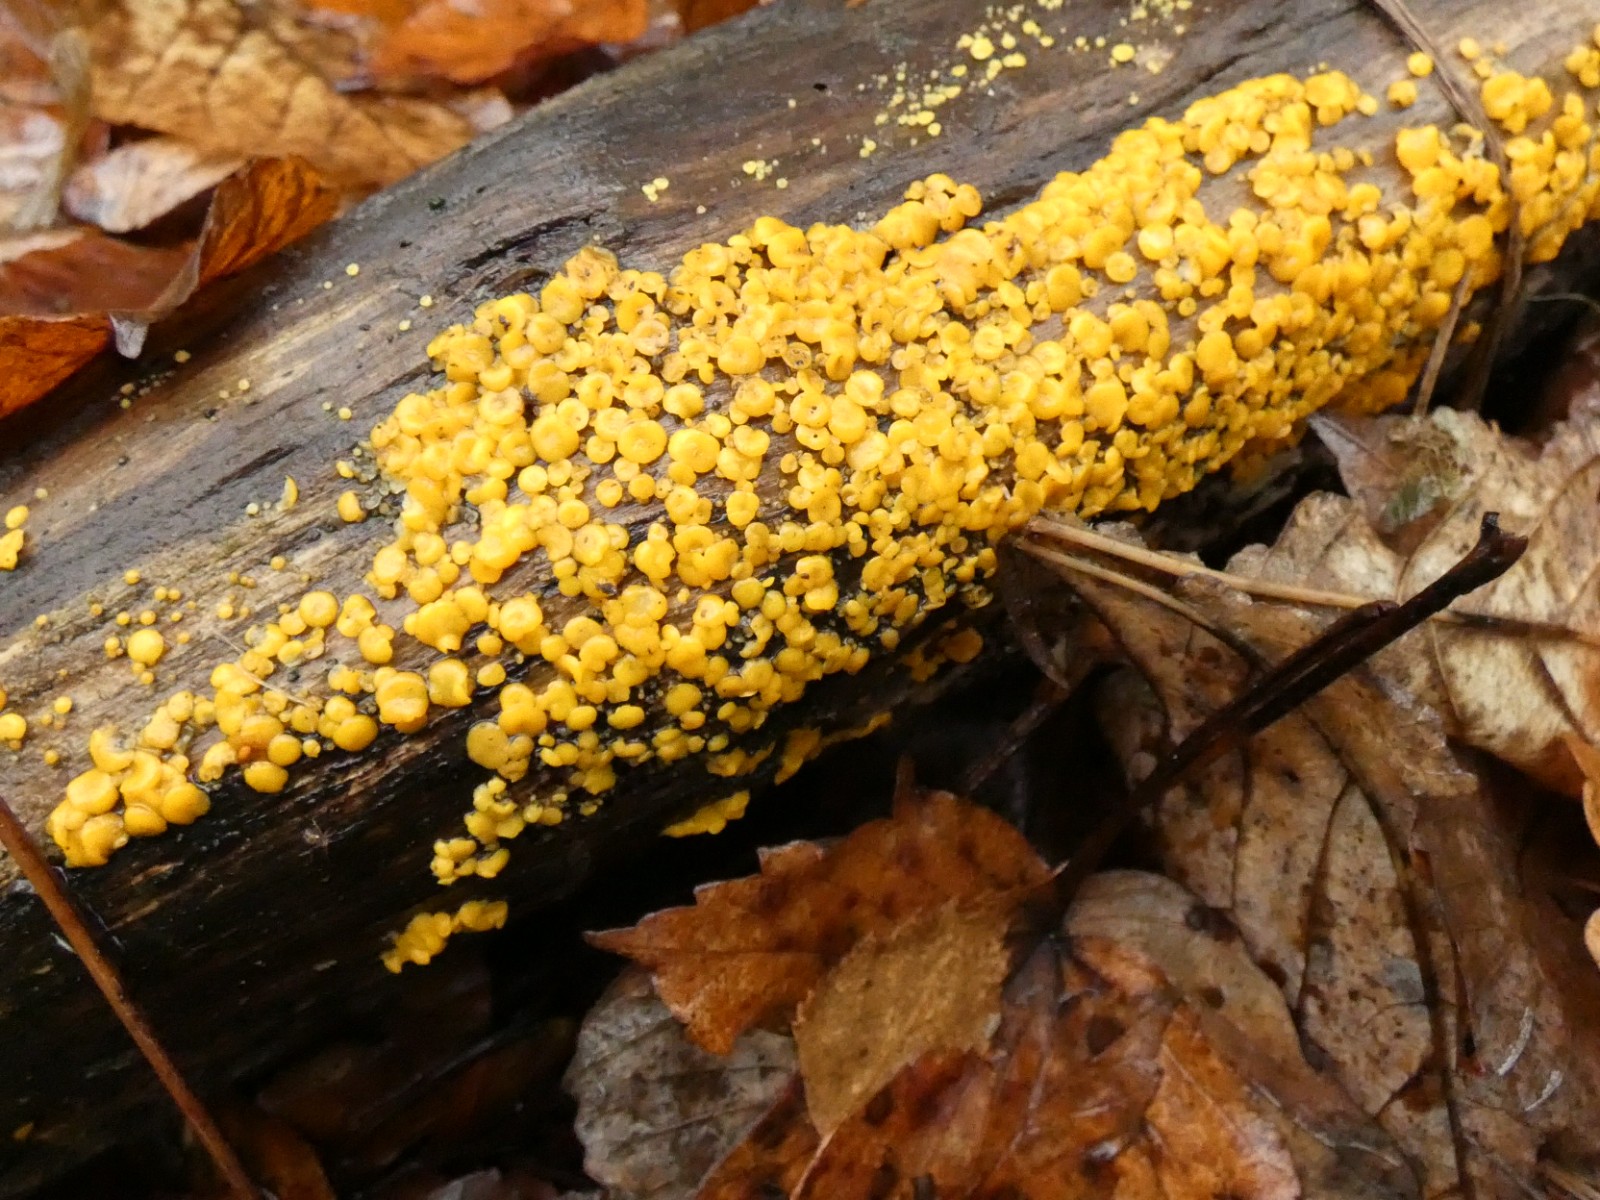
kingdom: Fungi
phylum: Ascomycota
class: Leotiomycetes
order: Helotiales
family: Pezizellaceae
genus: Calycina
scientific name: Calycina citrina
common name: almindelig gulskive
